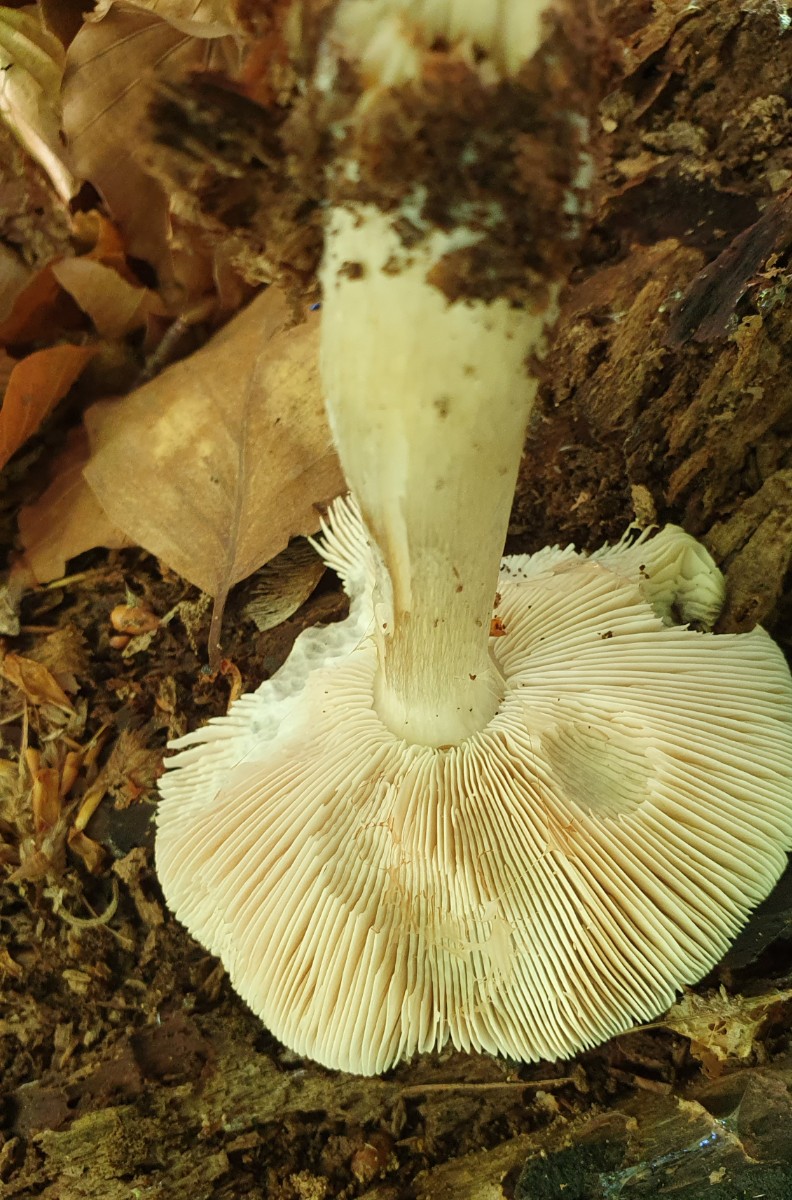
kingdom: Fungi
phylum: Basidiomycota
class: Agaricomycetes
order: Agaricales
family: Pluteaceae
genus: Pluteus
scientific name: Pluteus salicinus
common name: stiv skærmhat
